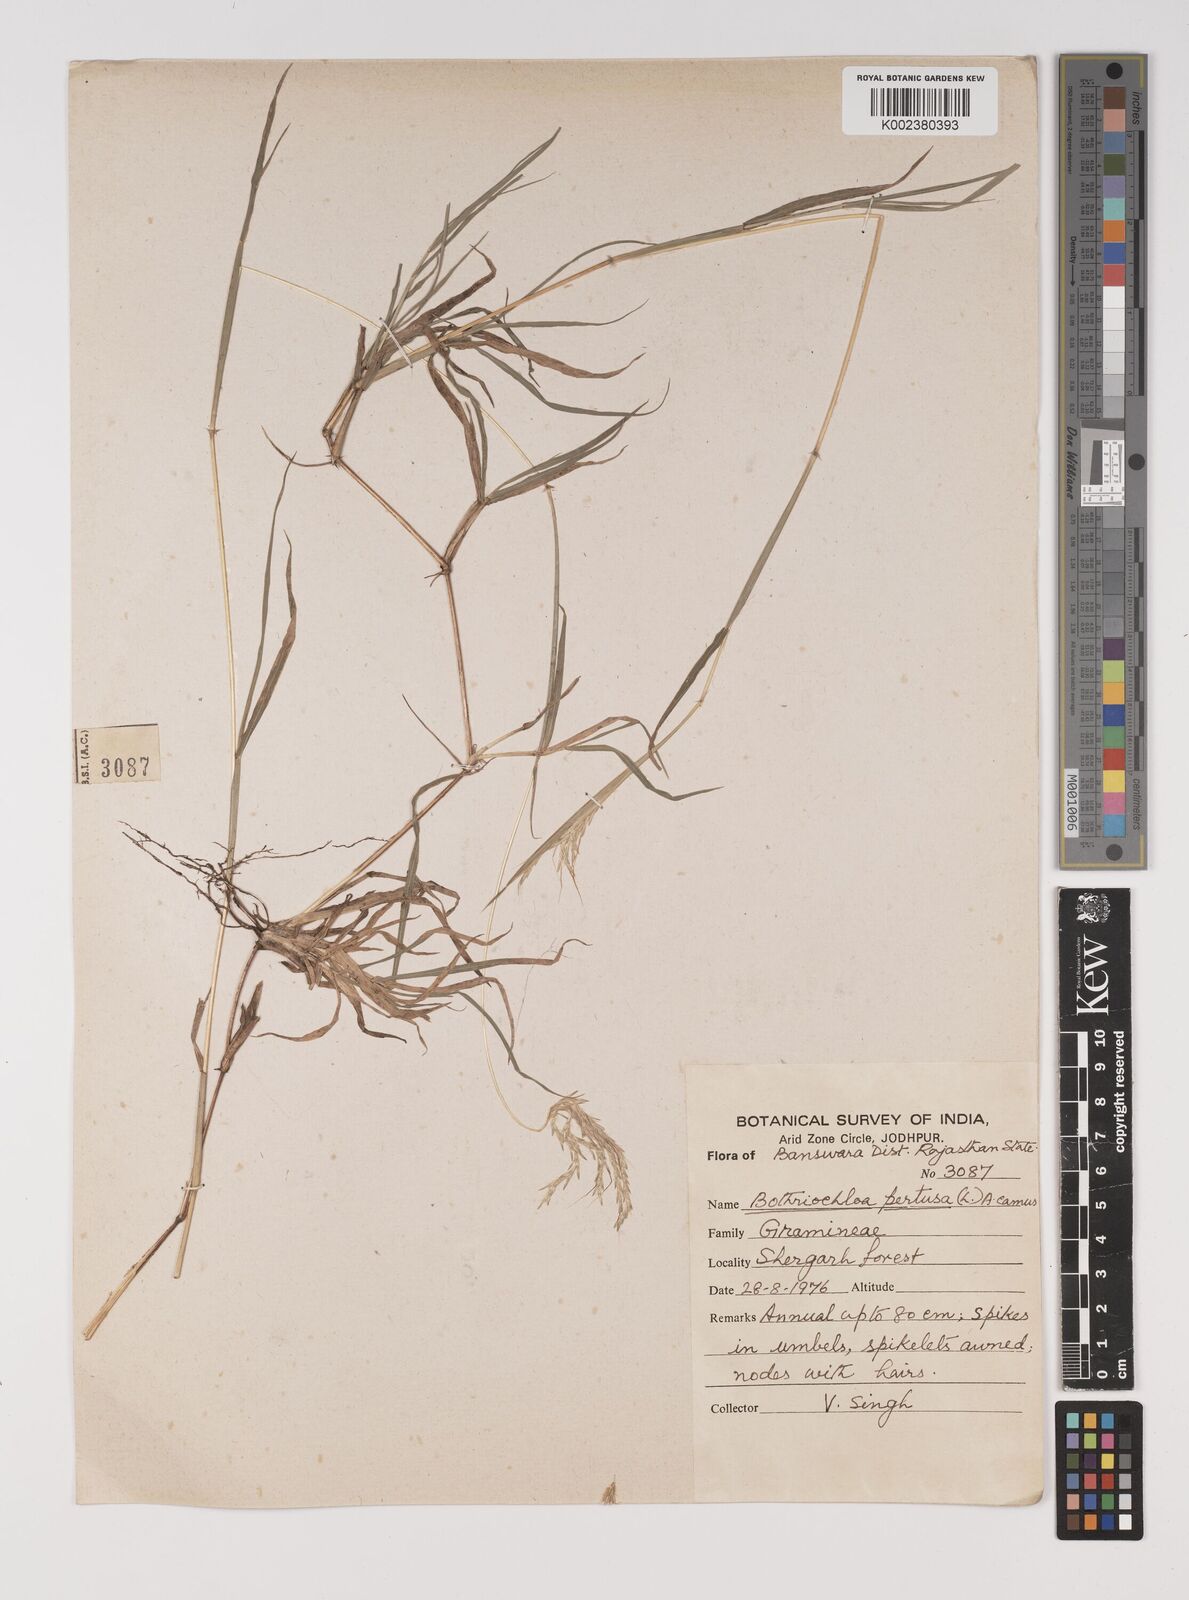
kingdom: Plantae
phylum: Tracheophyta
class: Liliopsida
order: Poales
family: Poaceae
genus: Bothriochloa
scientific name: Bothriochloa pertusa
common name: Pitted beardgrass
